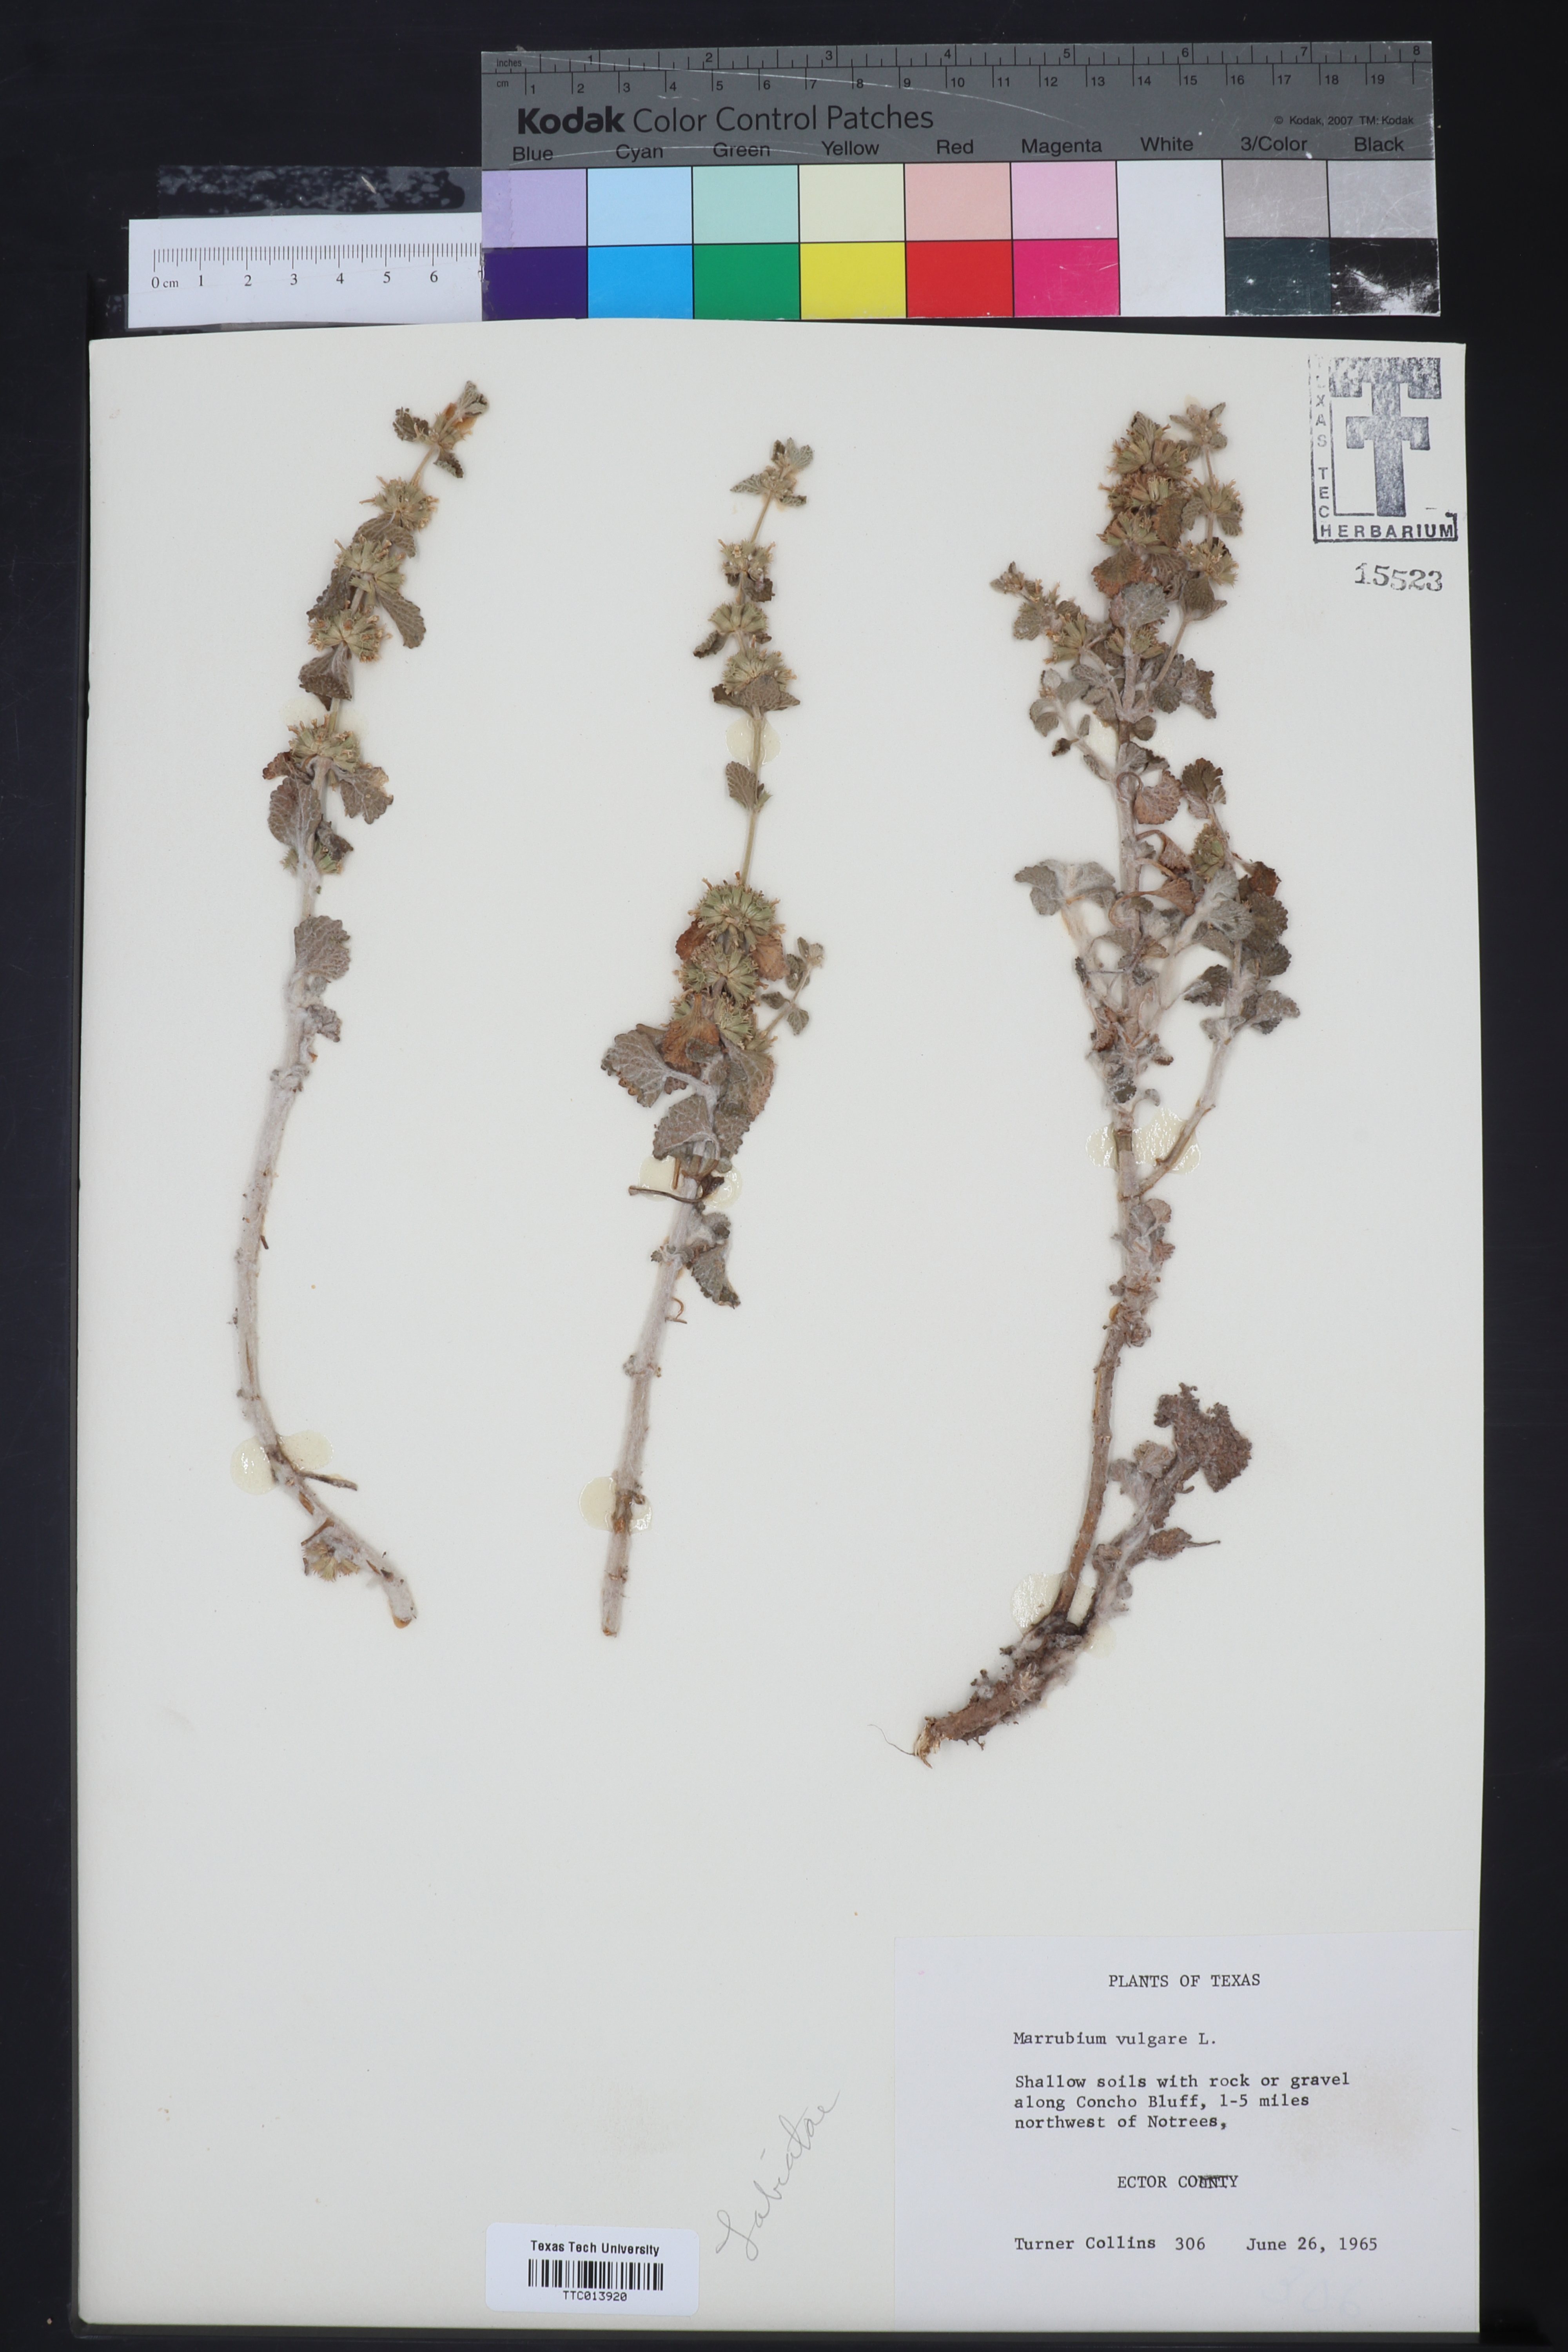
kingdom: Plantae
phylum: Tracheophyta
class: Magnoliopsida
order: Lamiales
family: Lamiaceae
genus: Marrubium
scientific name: Marrubium vulgare
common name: Horehound
